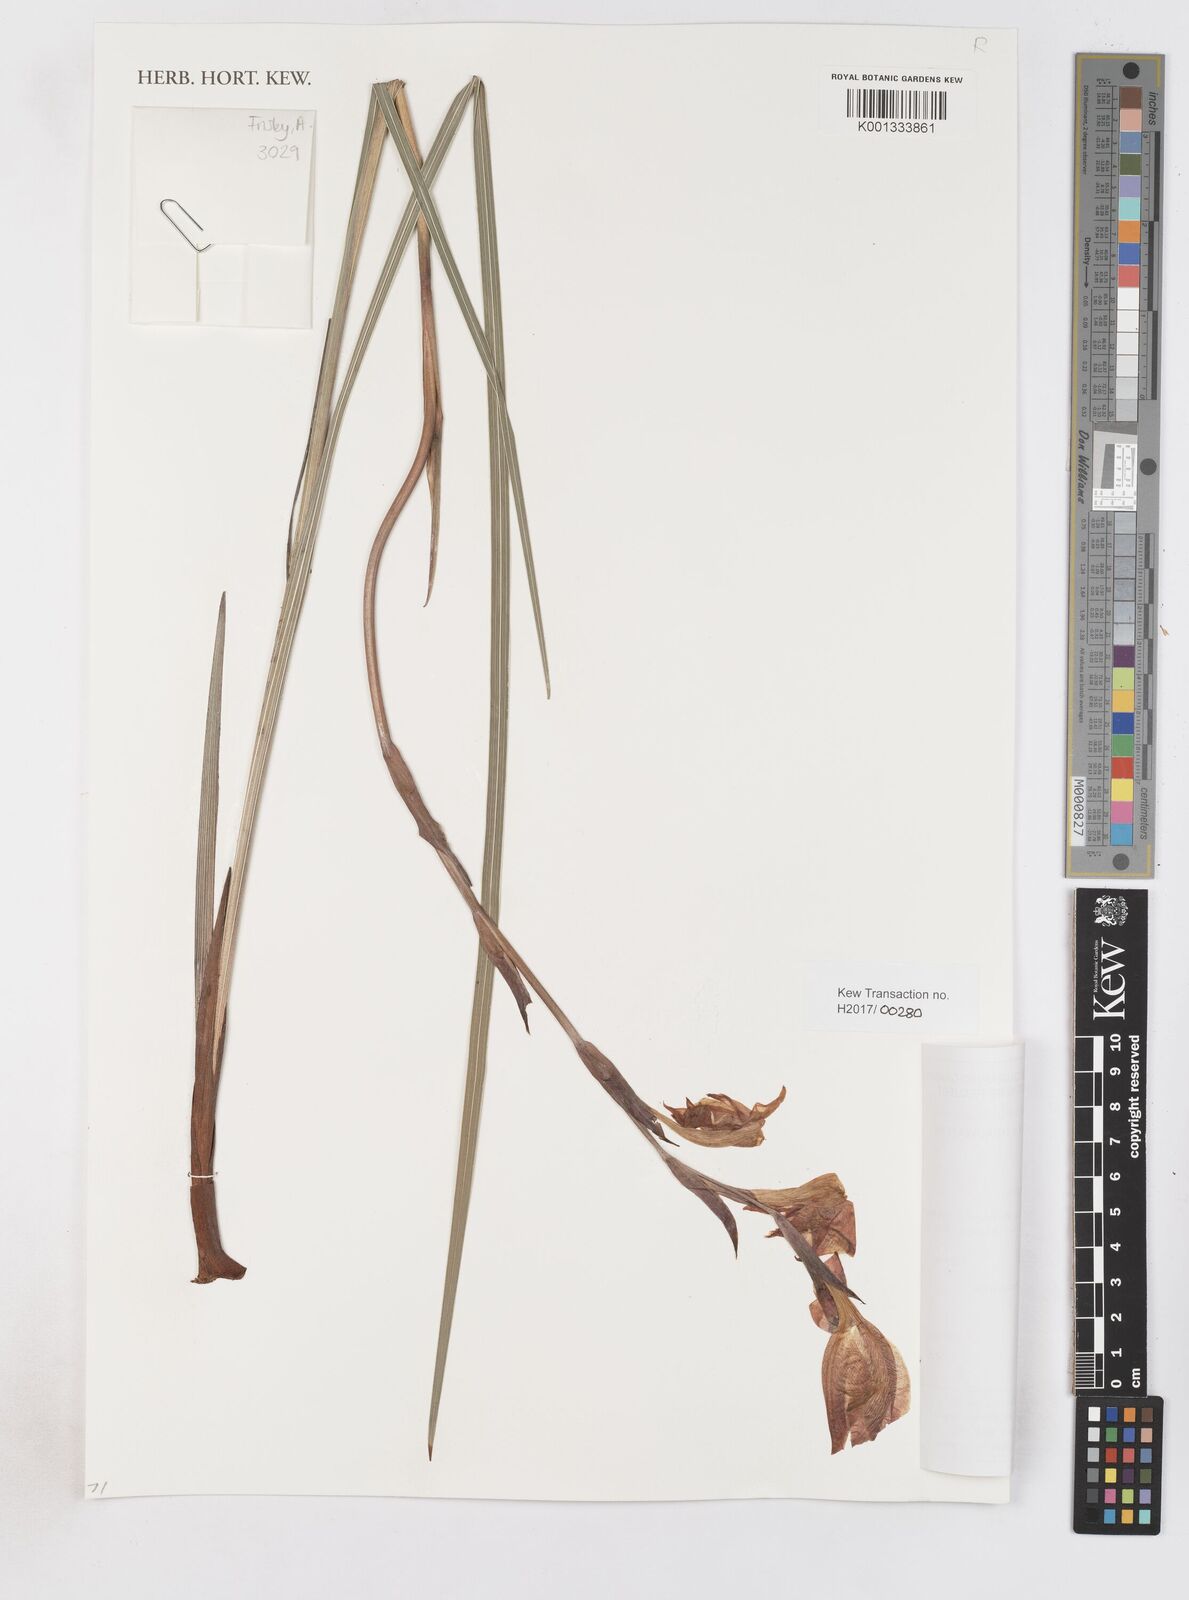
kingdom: Plantae
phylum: Tracheophyta
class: Liliopsida
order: Asparagales
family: Iridaceae
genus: Gladiolus
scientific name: Gladiolus dalenii
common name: Cornflag
